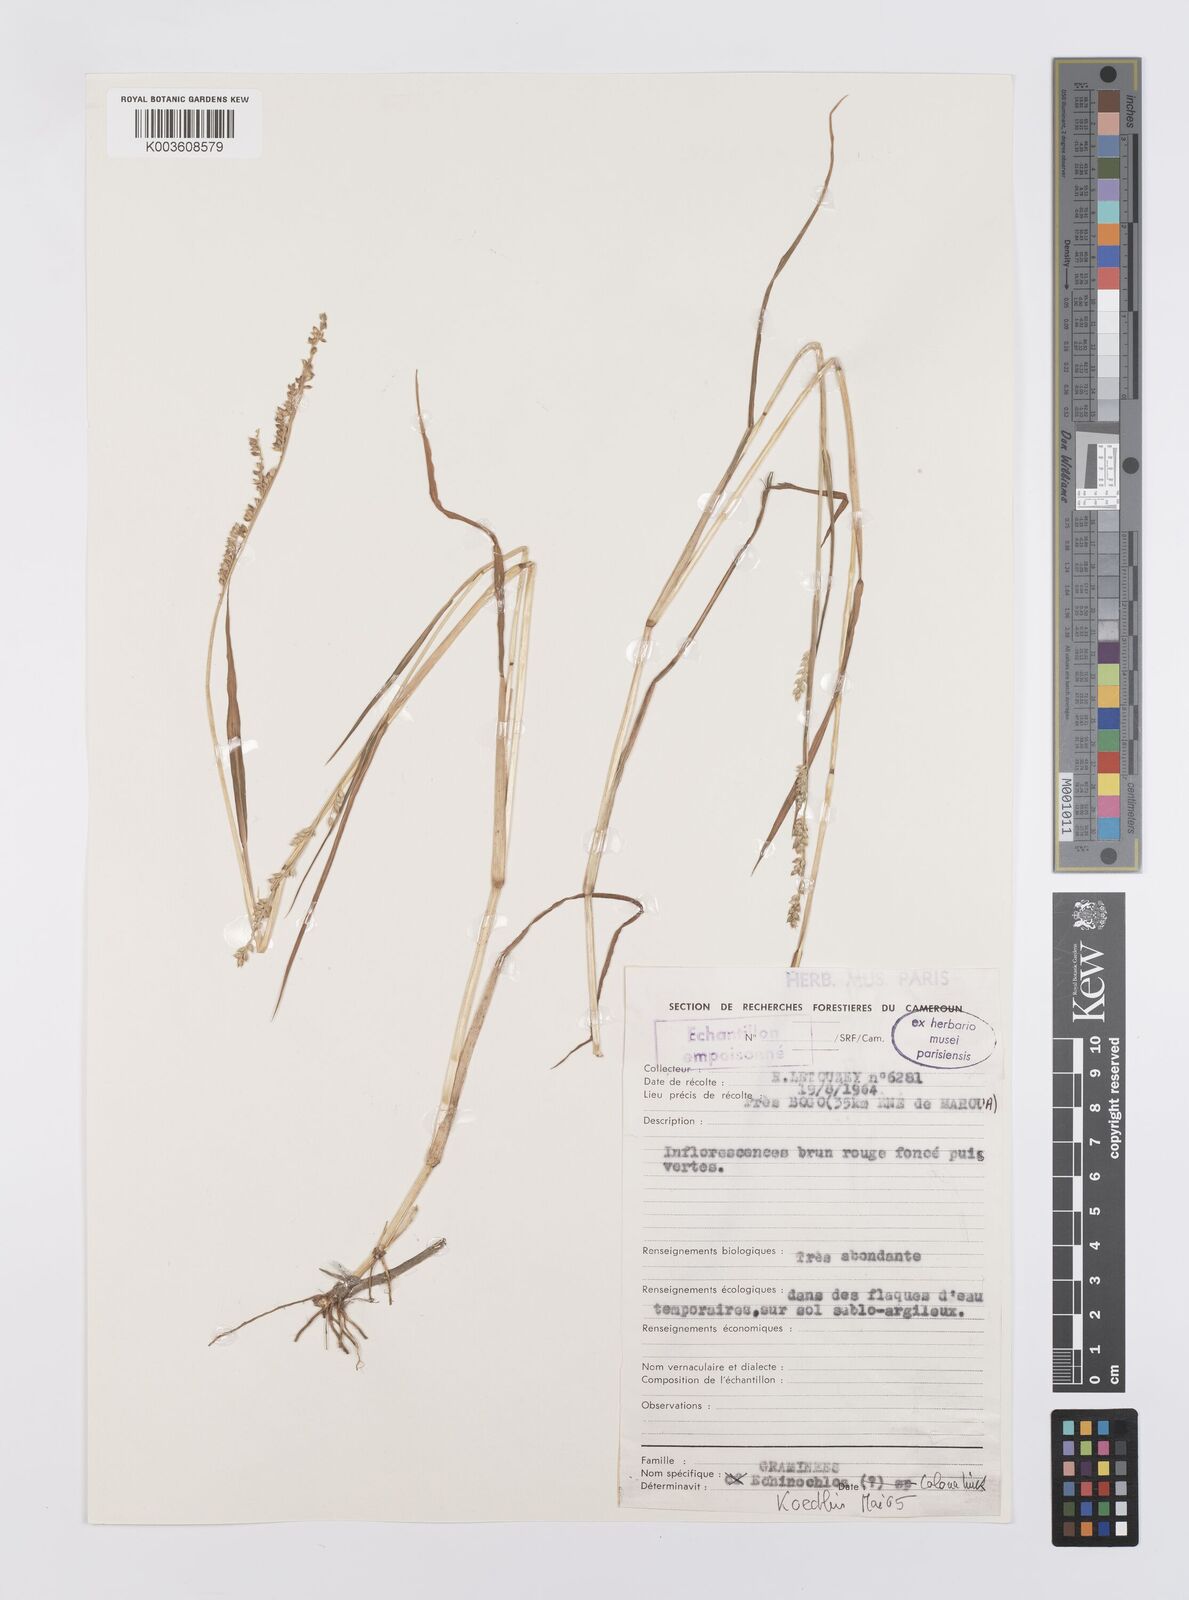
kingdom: Plantae
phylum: Tracheophyta
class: Liliopsida
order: Poales
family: Poaceae
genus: Echinochloa
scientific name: Echinochloa colonum
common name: Jungle rice
